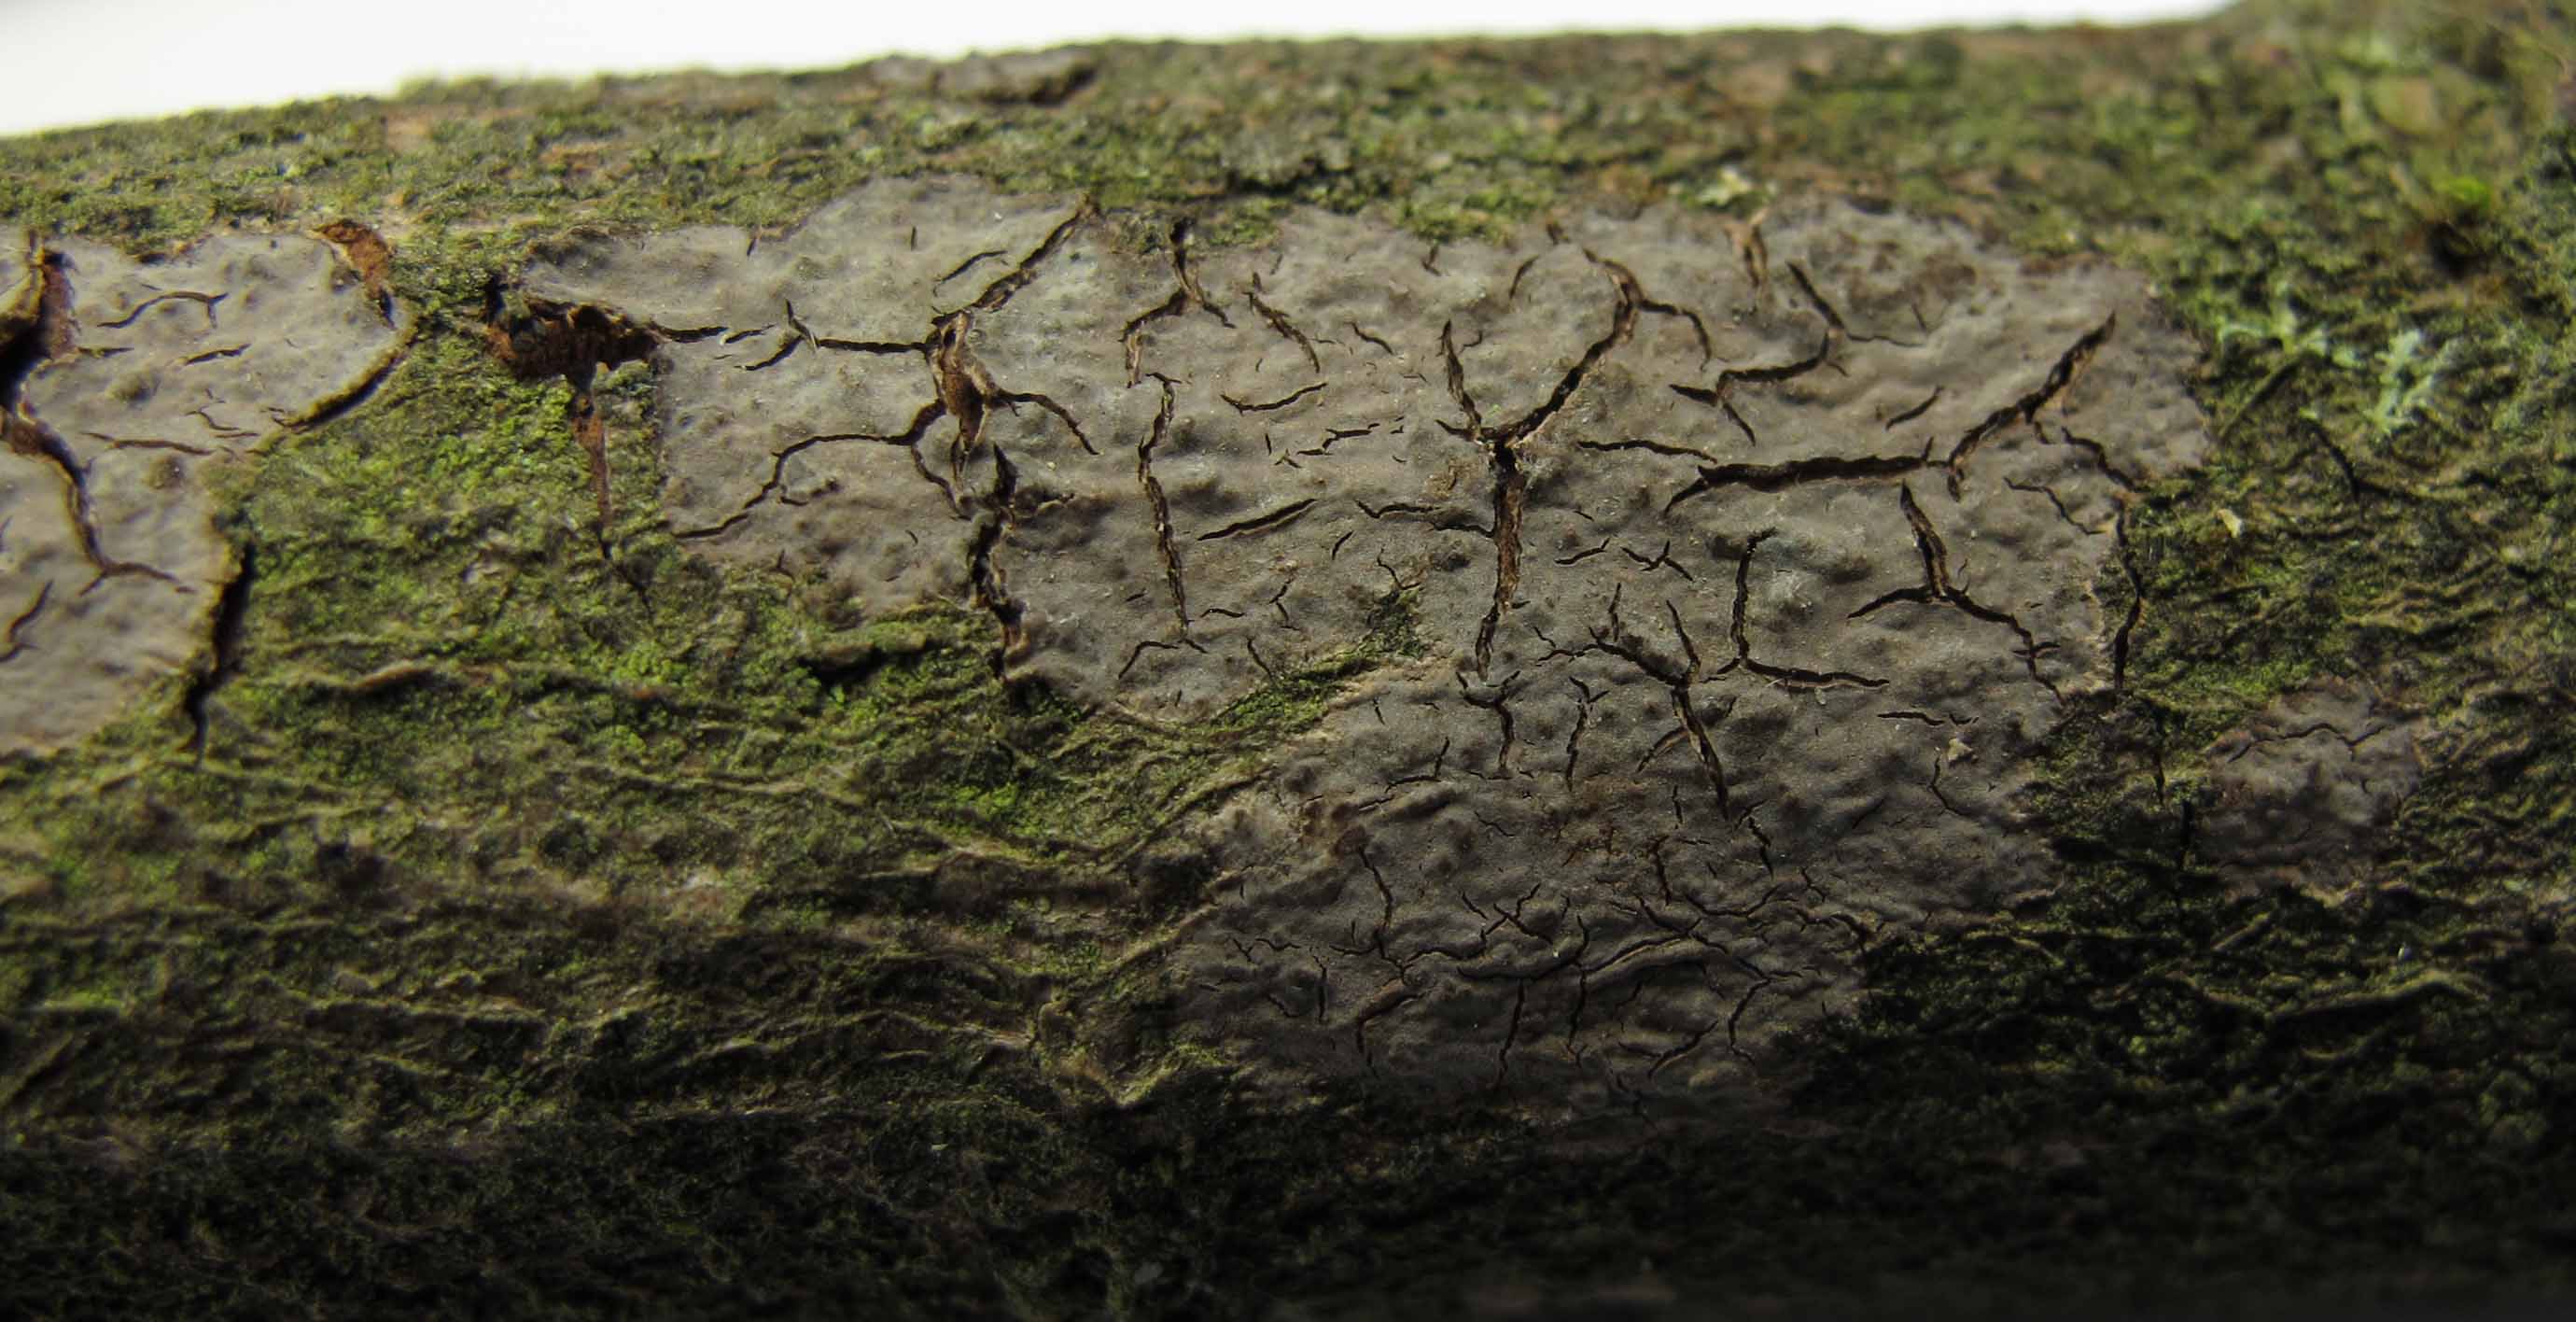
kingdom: Fungi
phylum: Basidiomycota
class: Agaricomycetes
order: Russulales
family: Peniophoraceae
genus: Peniophora
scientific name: Peniophora violaceolivida
